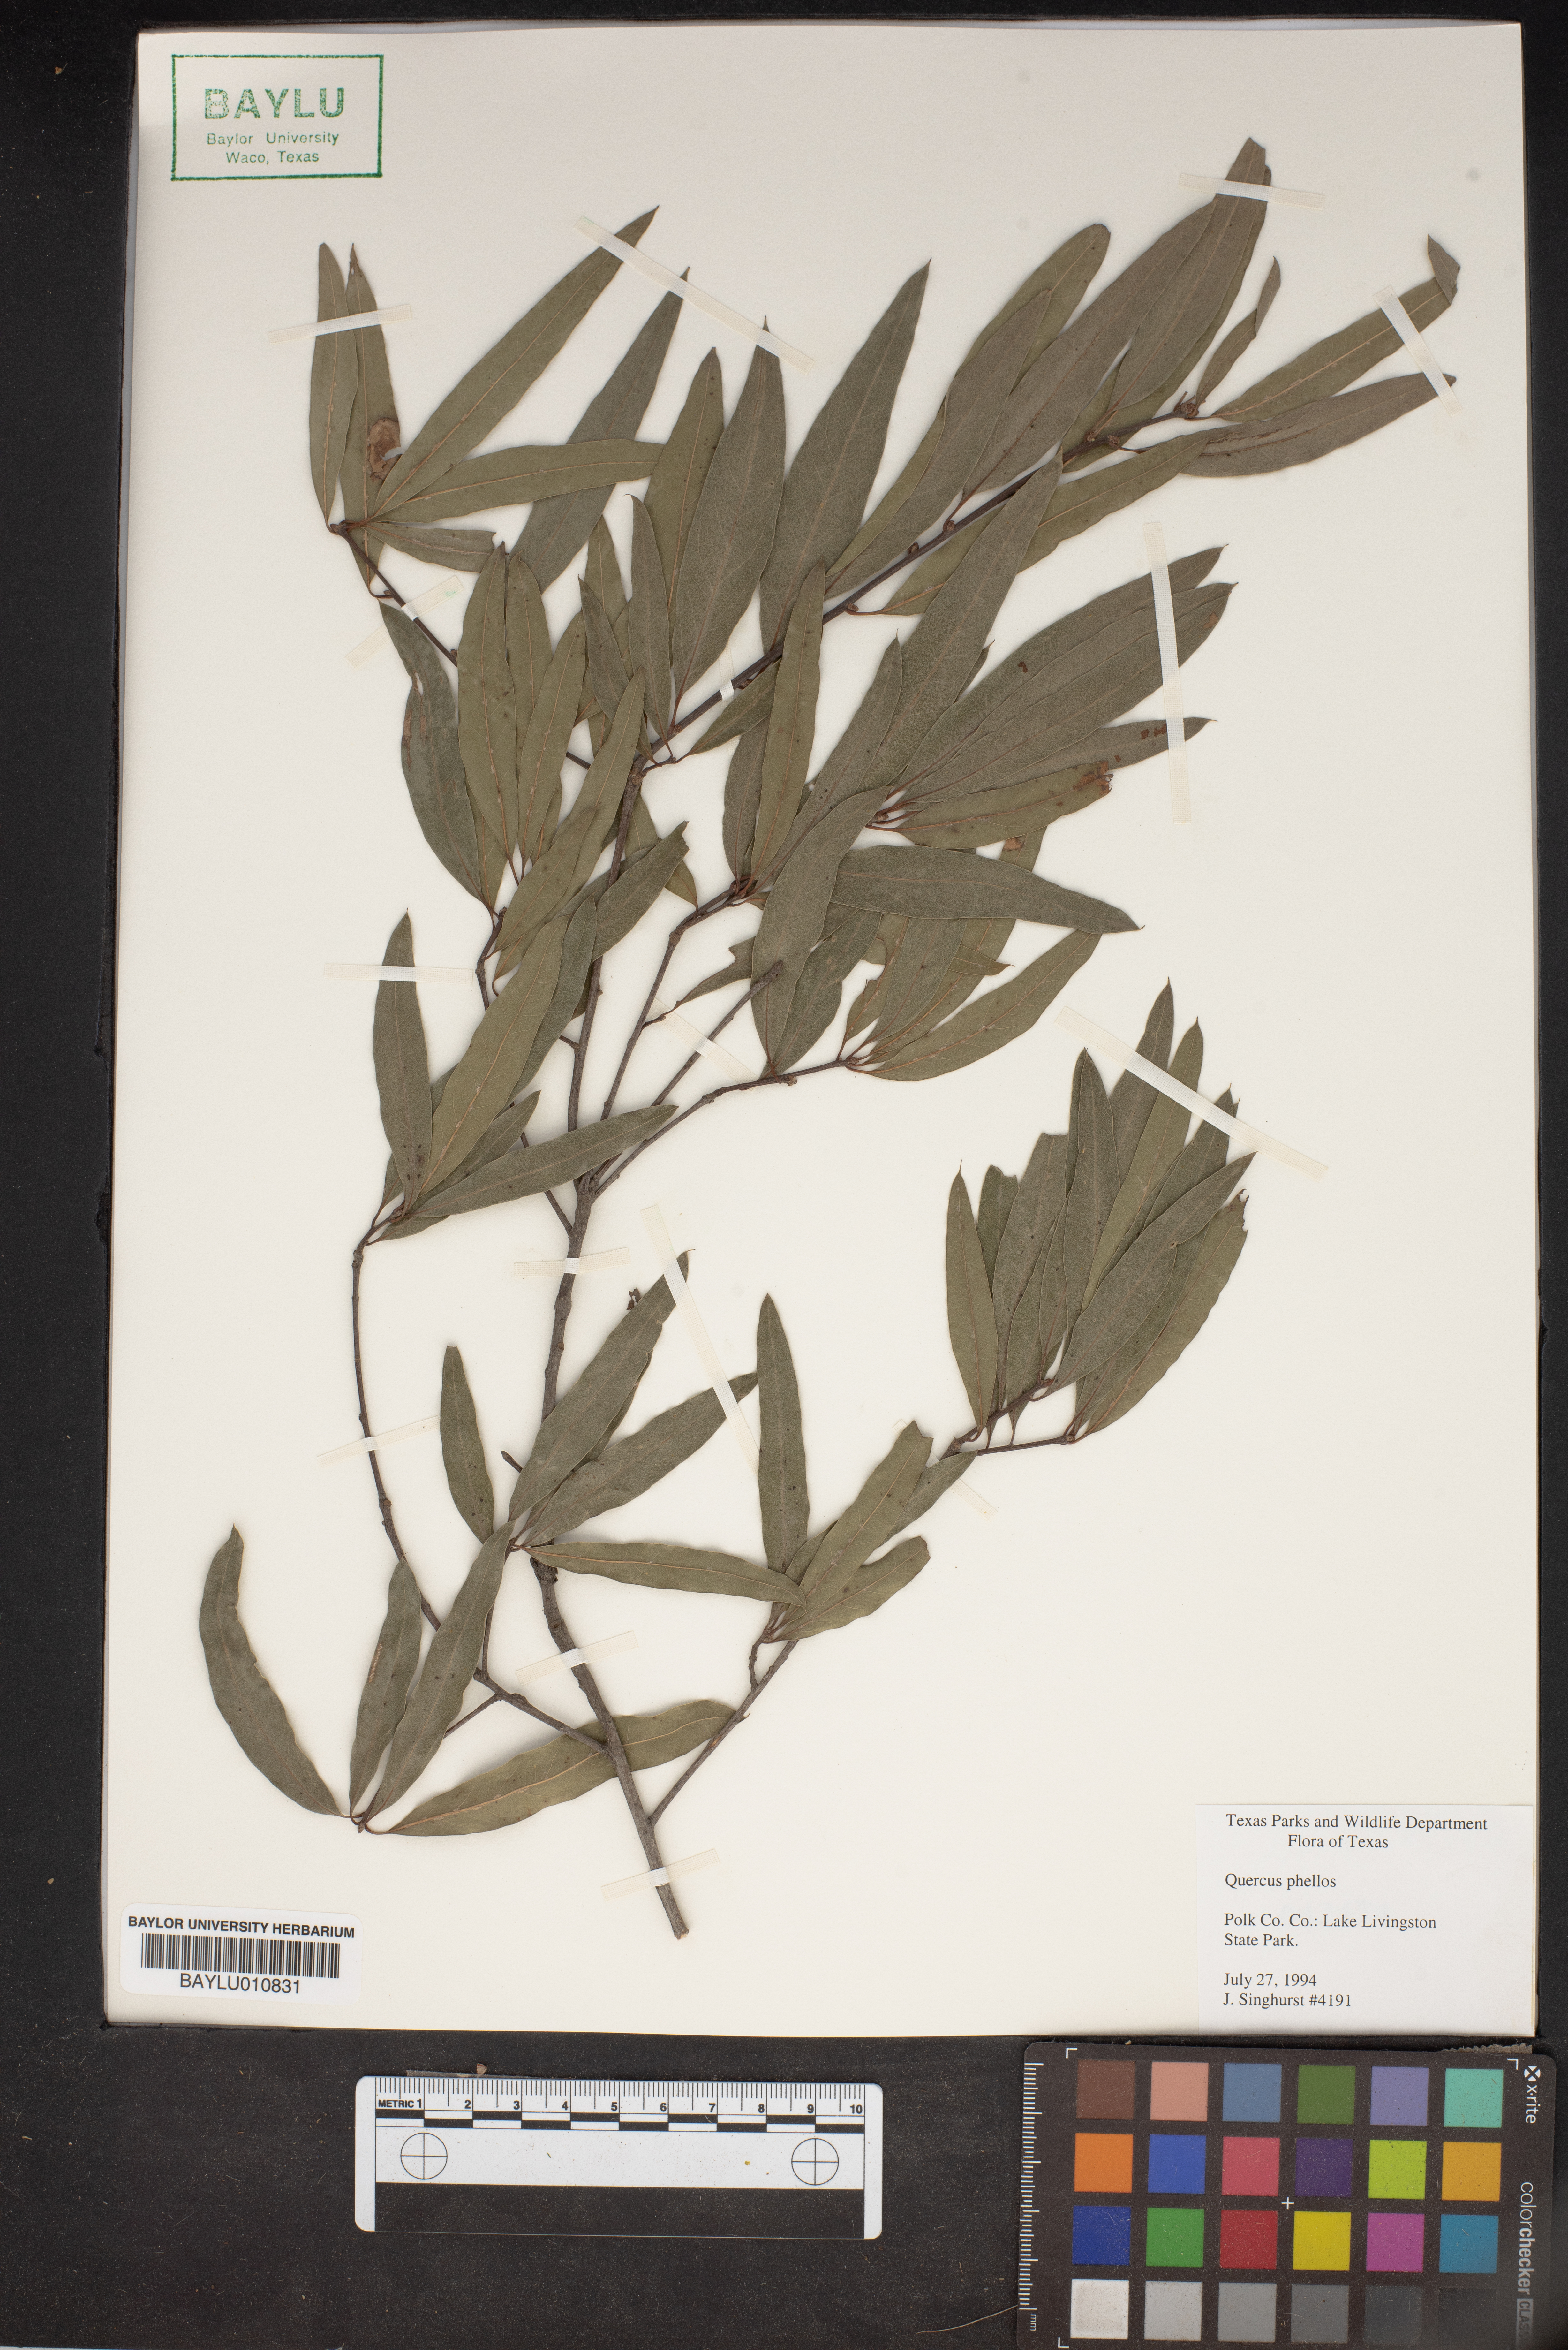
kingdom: Plantae
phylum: Tracheophyta
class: Magnoliopsida
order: Fagales
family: Fagaceae
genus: Quercus
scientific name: Quercus phellos
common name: Willow oak
